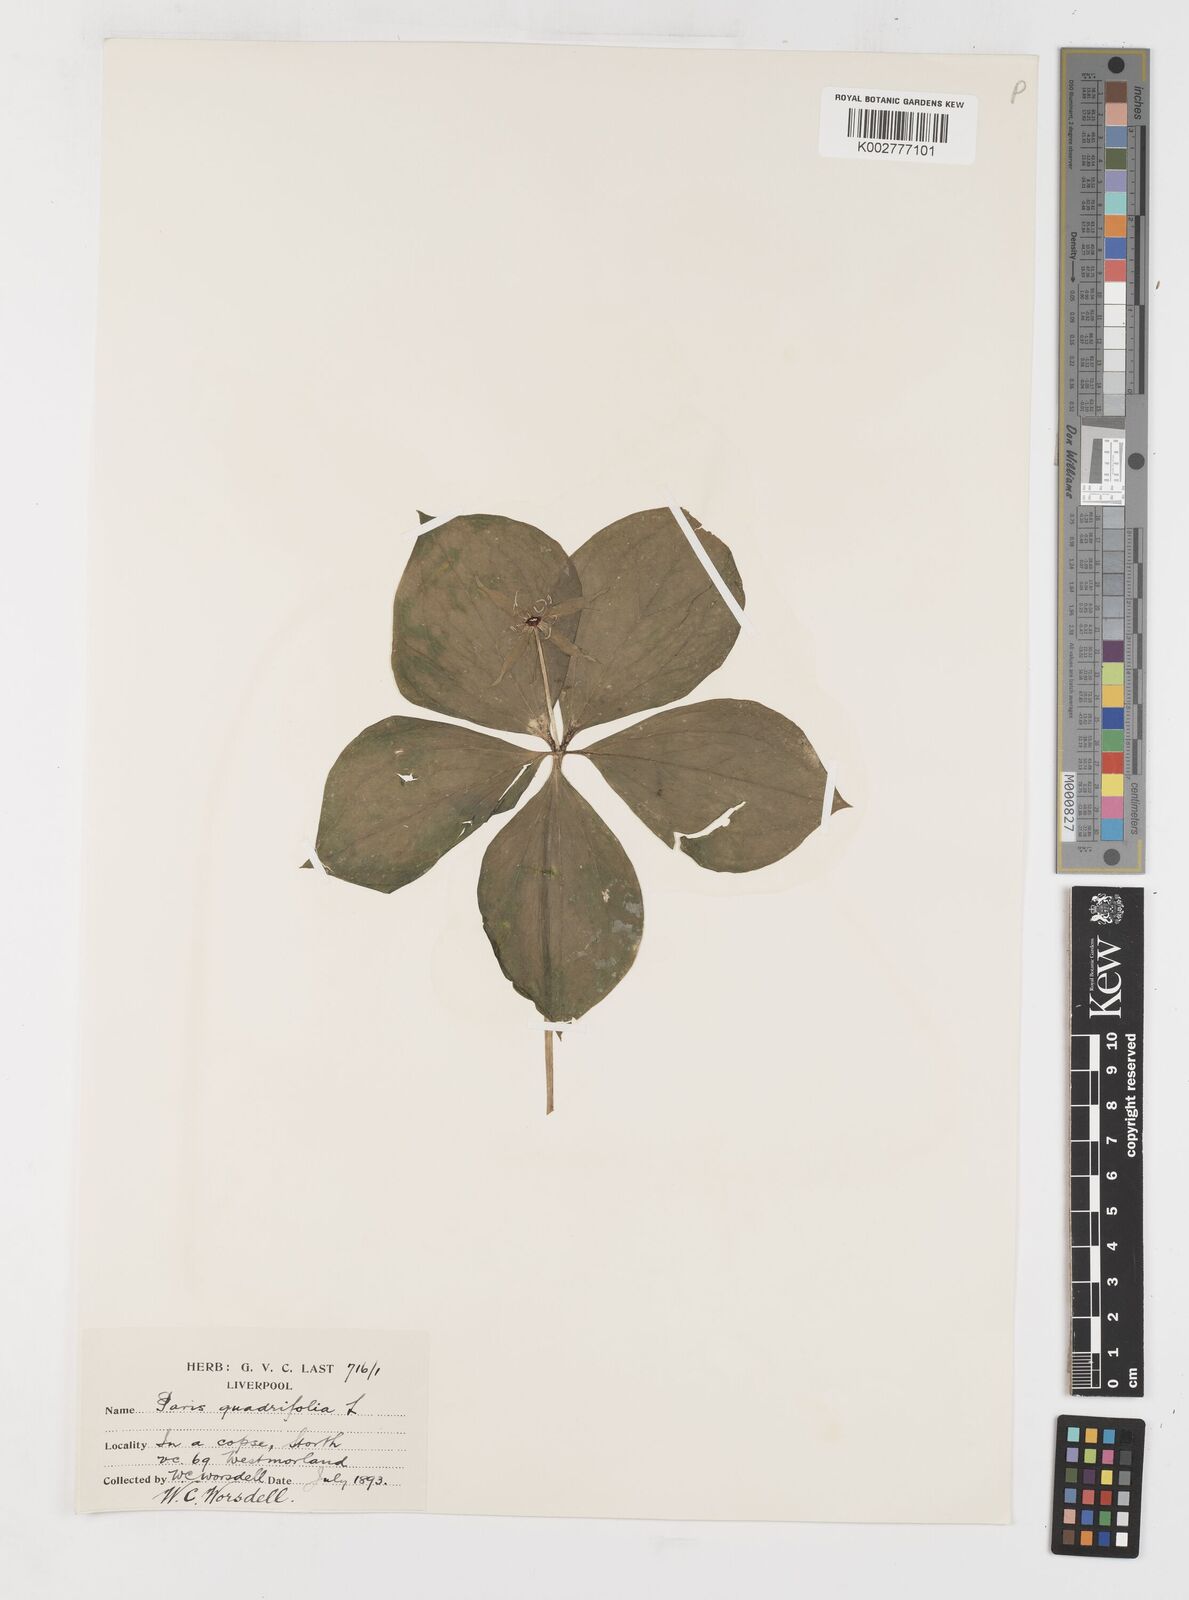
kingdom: Plantae
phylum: Tracheophyta
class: Liliopsida
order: Liliales
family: Melanthiaceae
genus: Paris
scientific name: Paris quadrifolia
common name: Herb-paris
